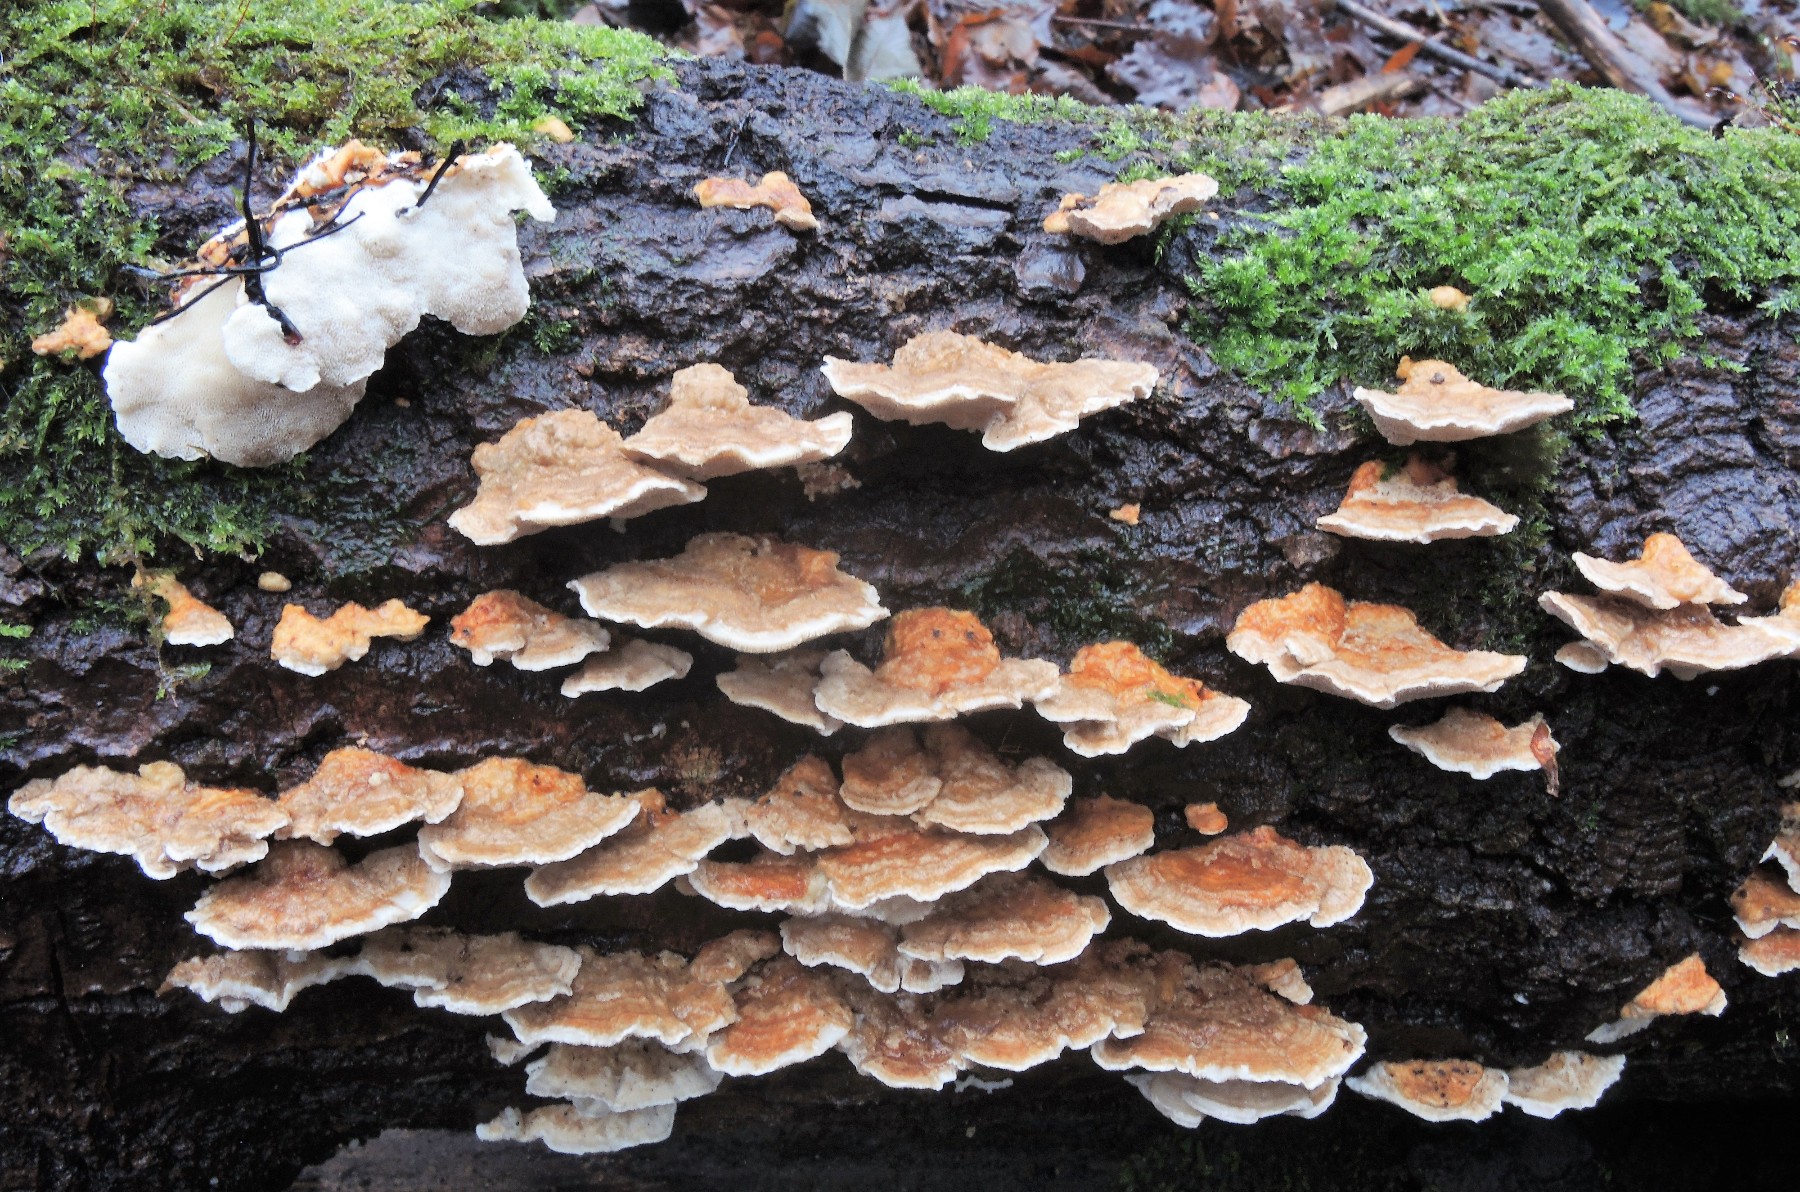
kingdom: Fungi
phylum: Basidiomycota
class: Agaricomycetes
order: Polyporales
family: Polyporaceae
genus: Trametes
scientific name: Trametes ochracea
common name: bæltet læderporesvamp
